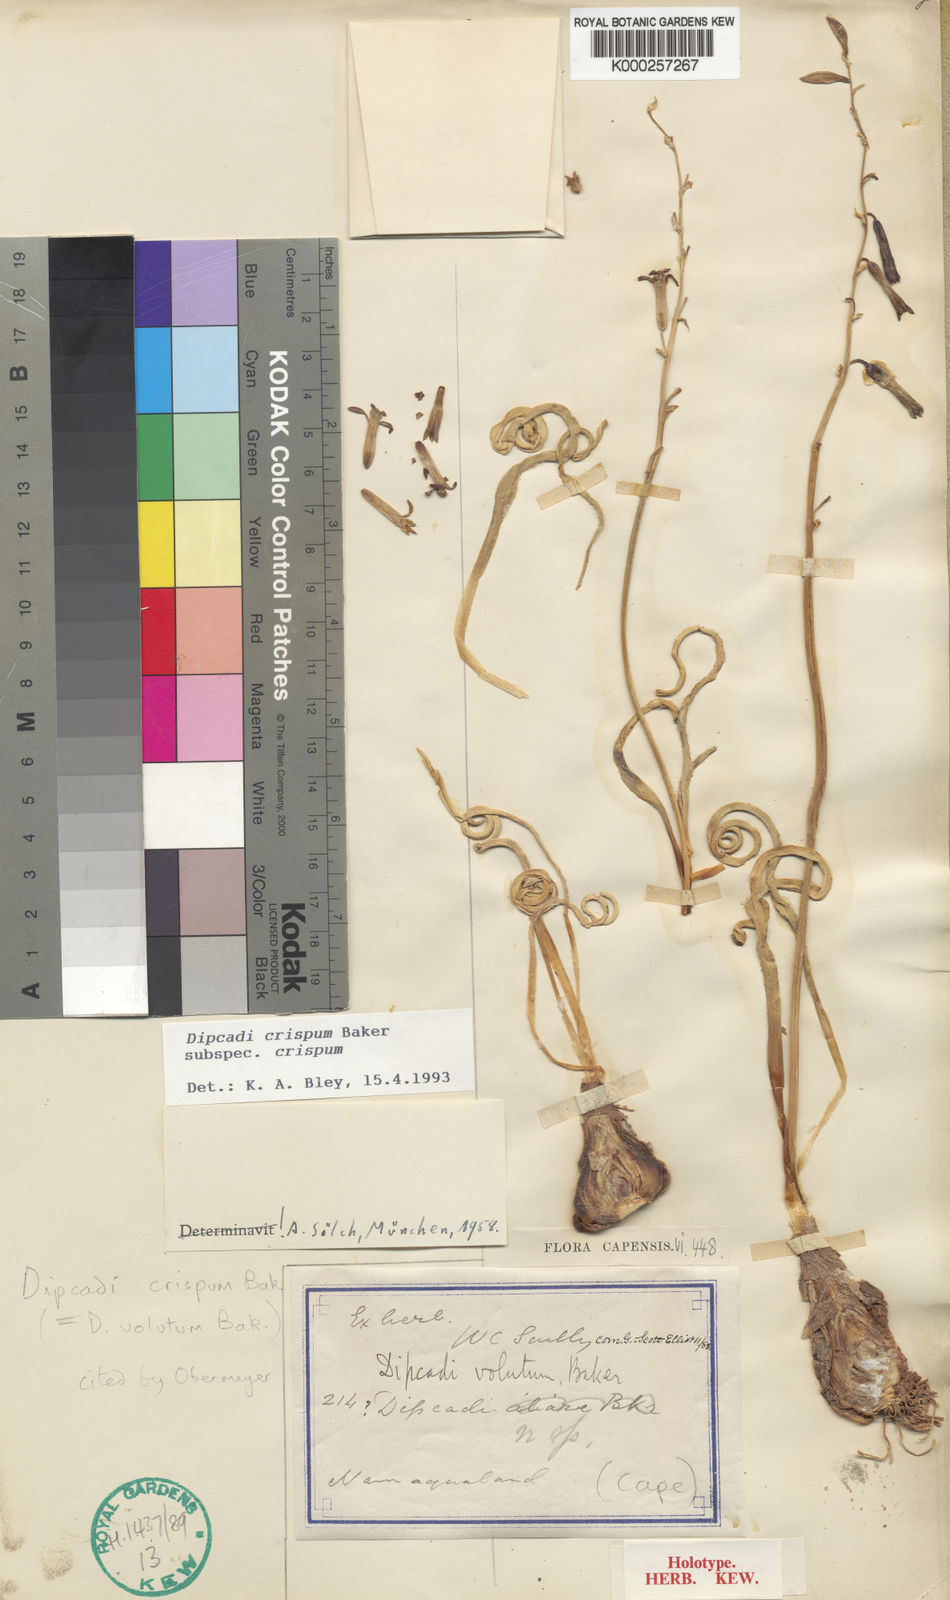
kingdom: Plantae
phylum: Tracheophyta
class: Liliopsida
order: Asparagales
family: Asparagaceae
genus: Dipcadi
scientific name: Dipcadi crispum
